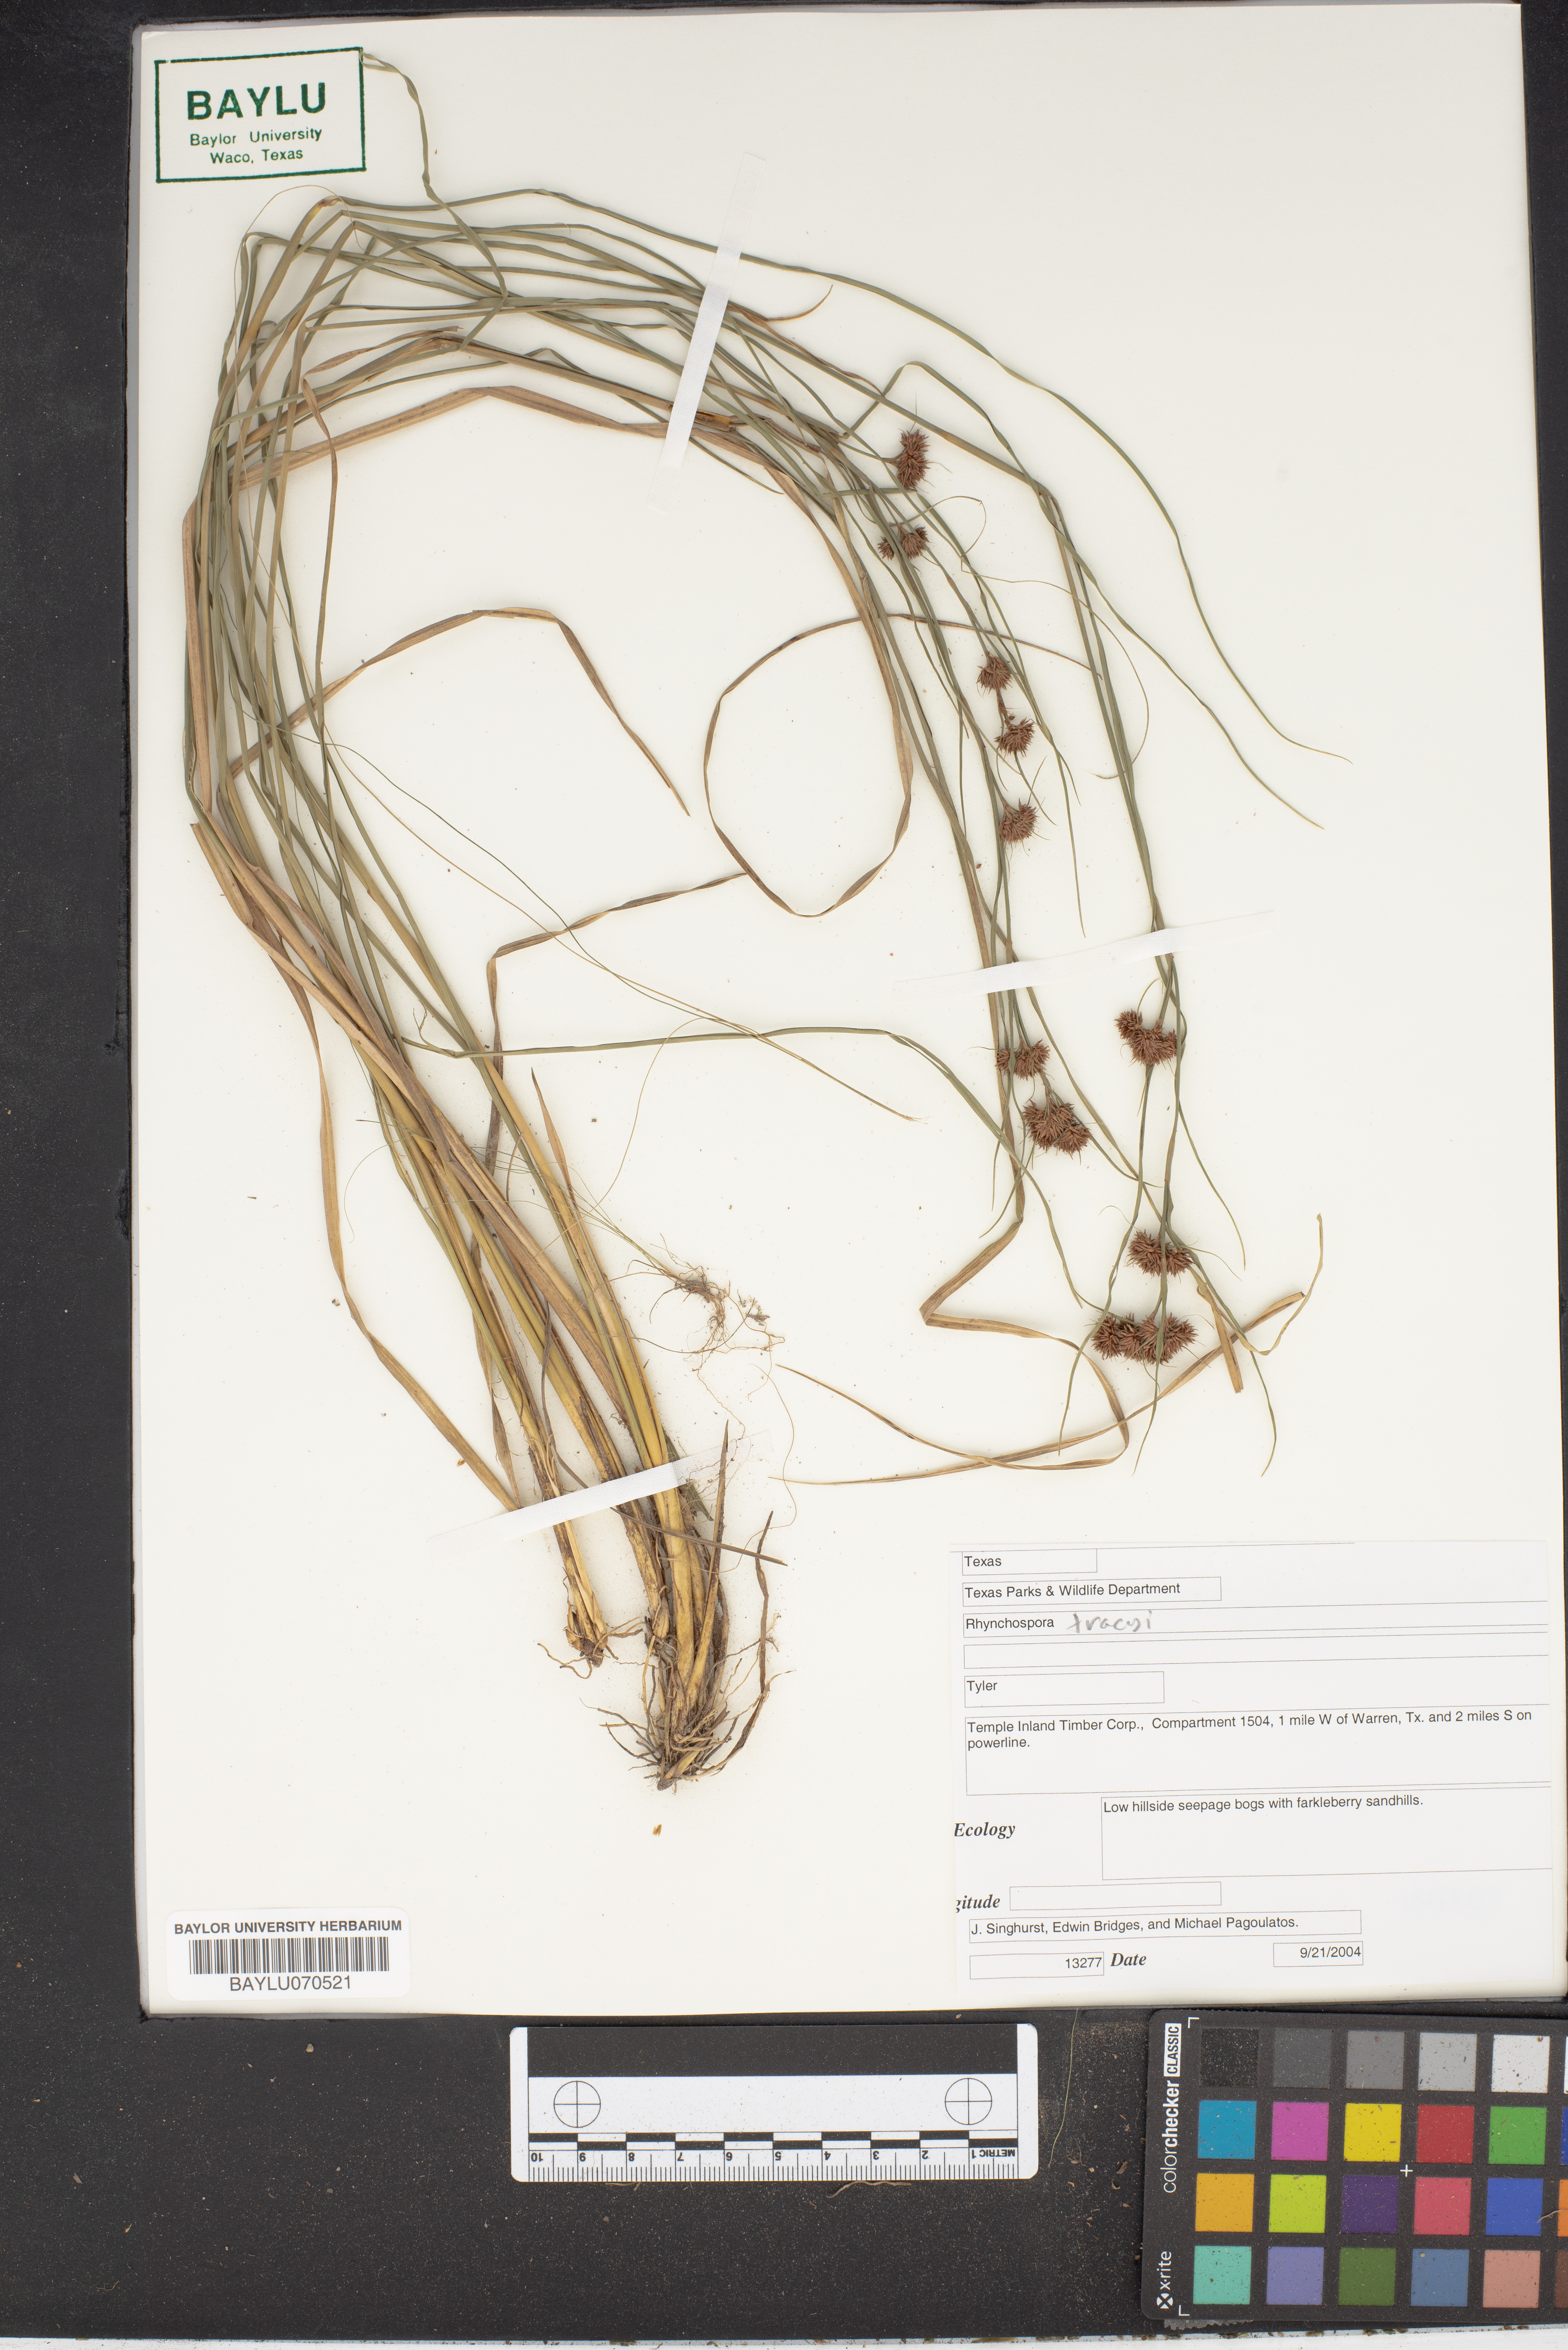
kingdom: Plantae
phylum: Tracheophyta
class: Liliopsida
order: Poales
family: Cyperaceae
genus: Rhynchospora
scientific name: Rhynchospora tracyi
